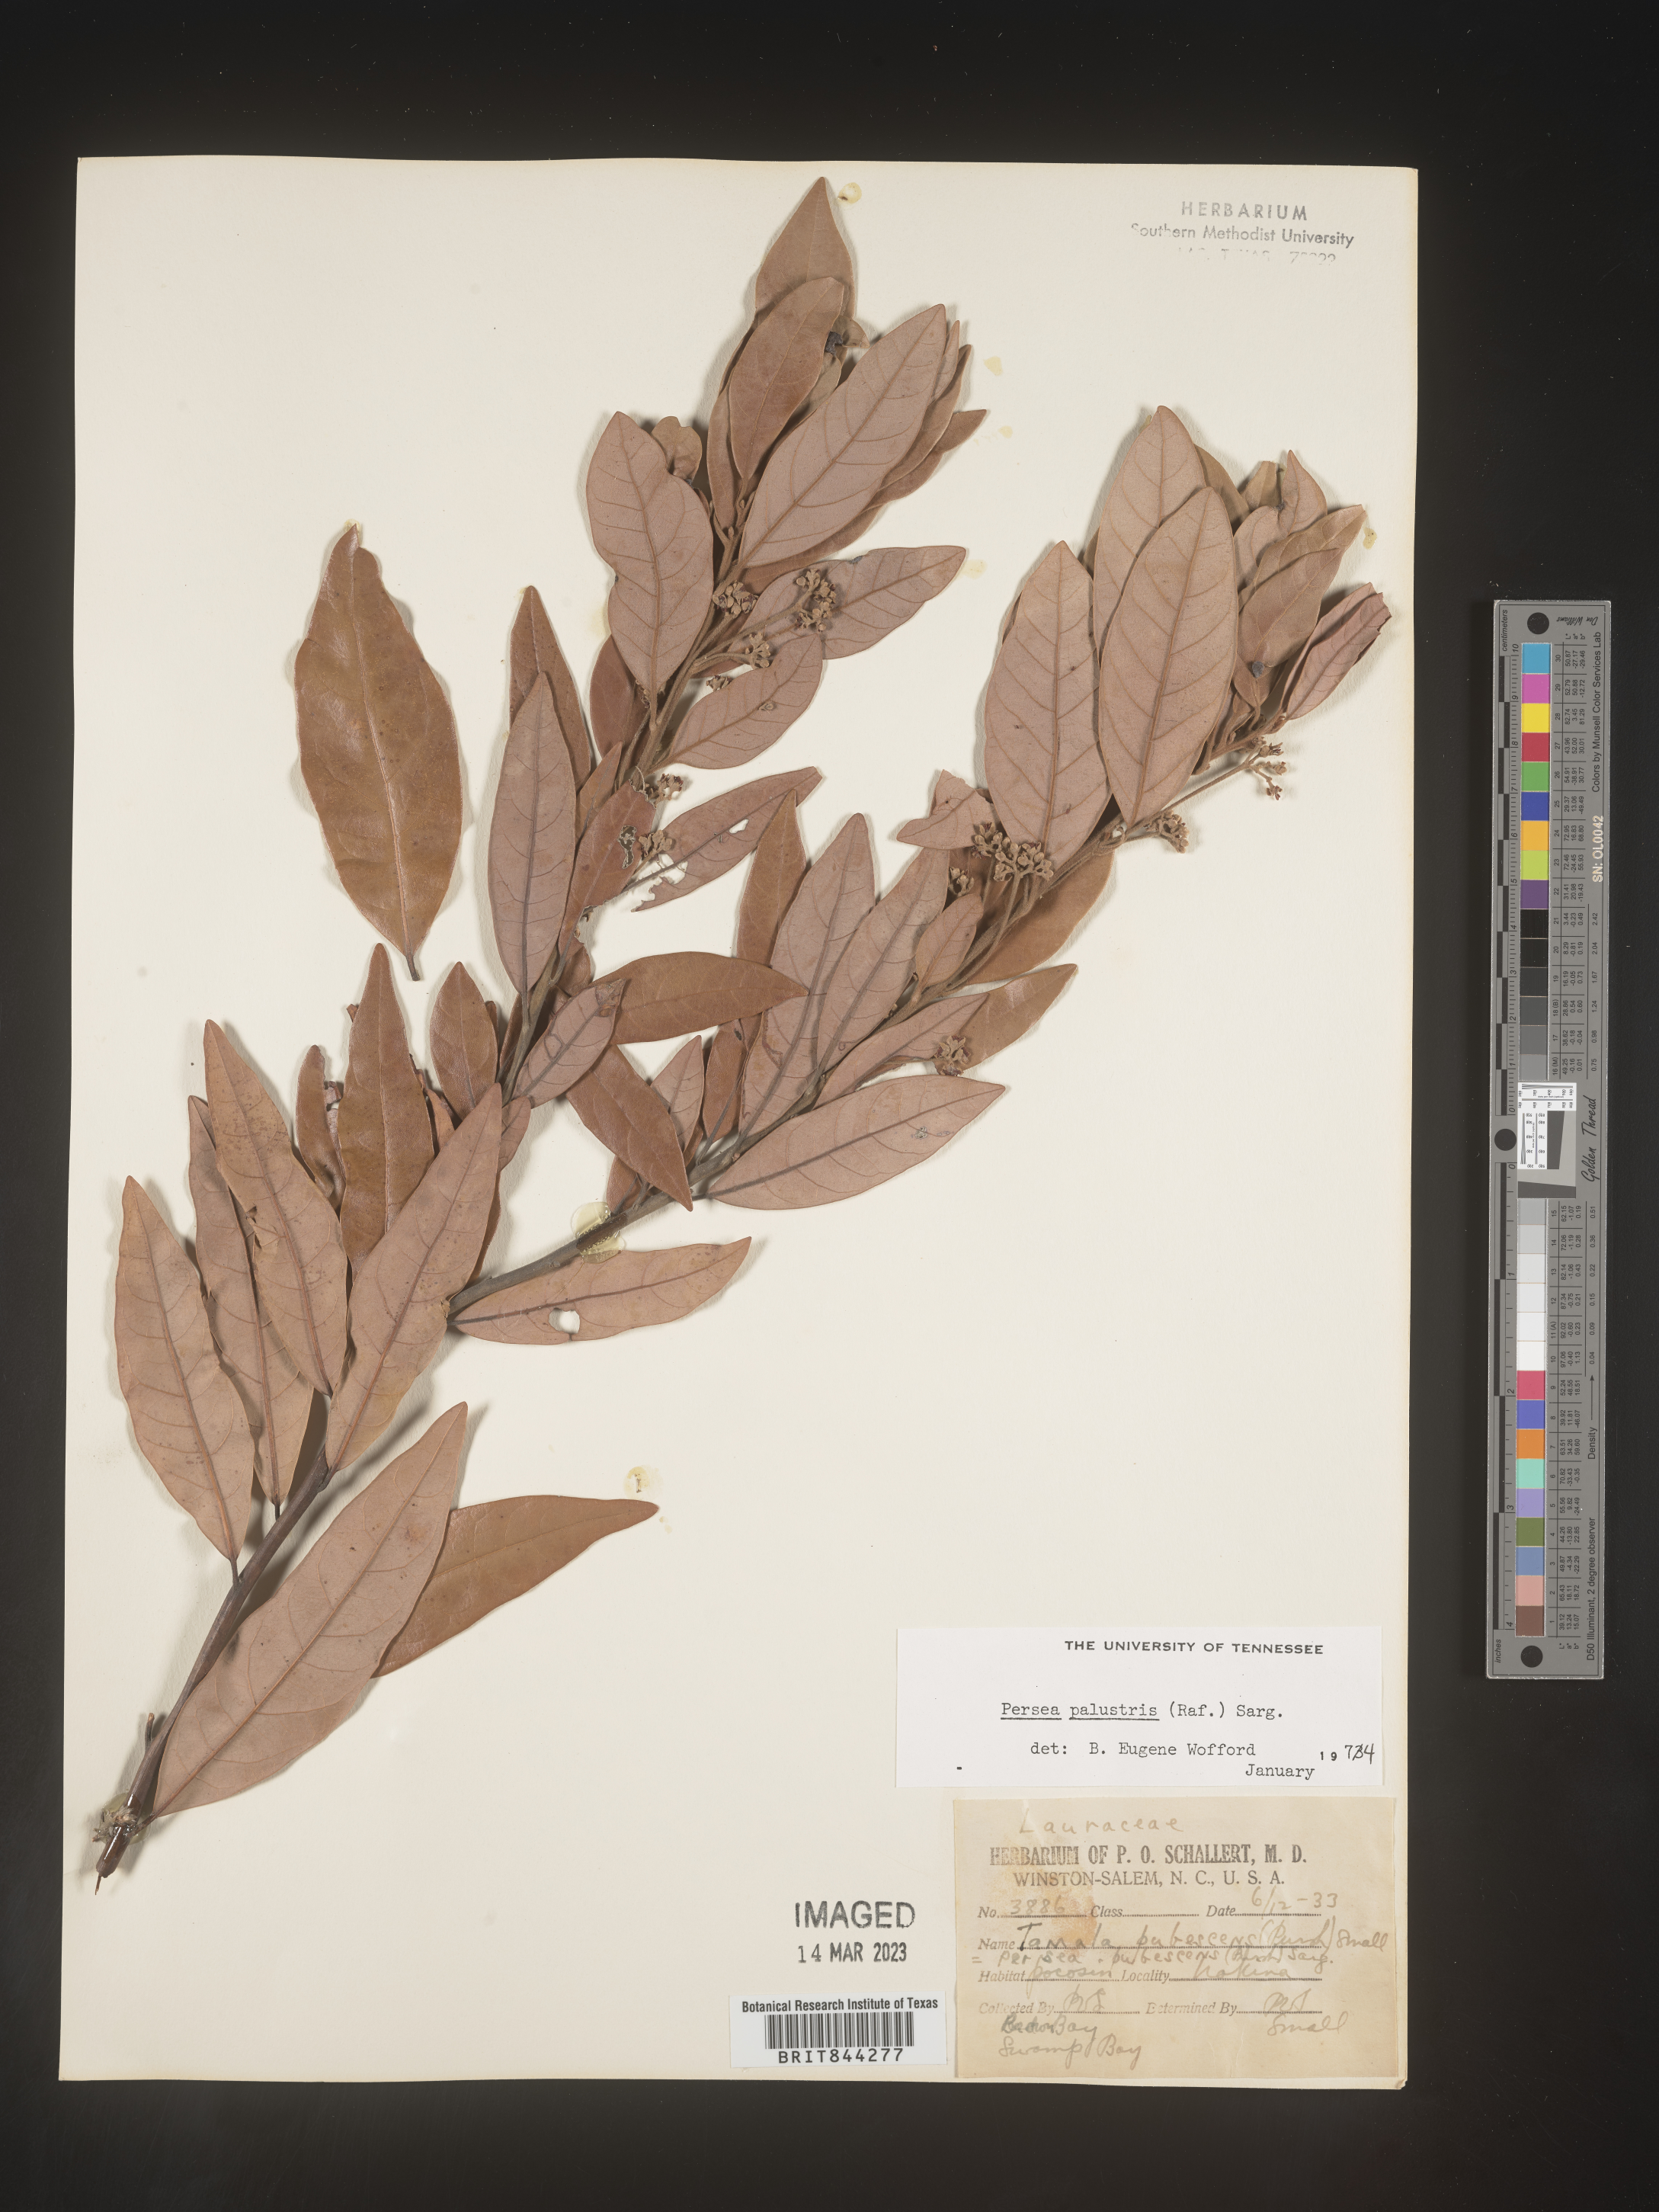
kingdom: Plantae
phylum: Tracheophyta
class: Magnoliopsida
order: Laurales
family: Lauraceae
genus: Persea
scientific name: Persea palustris
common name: Swampbay
